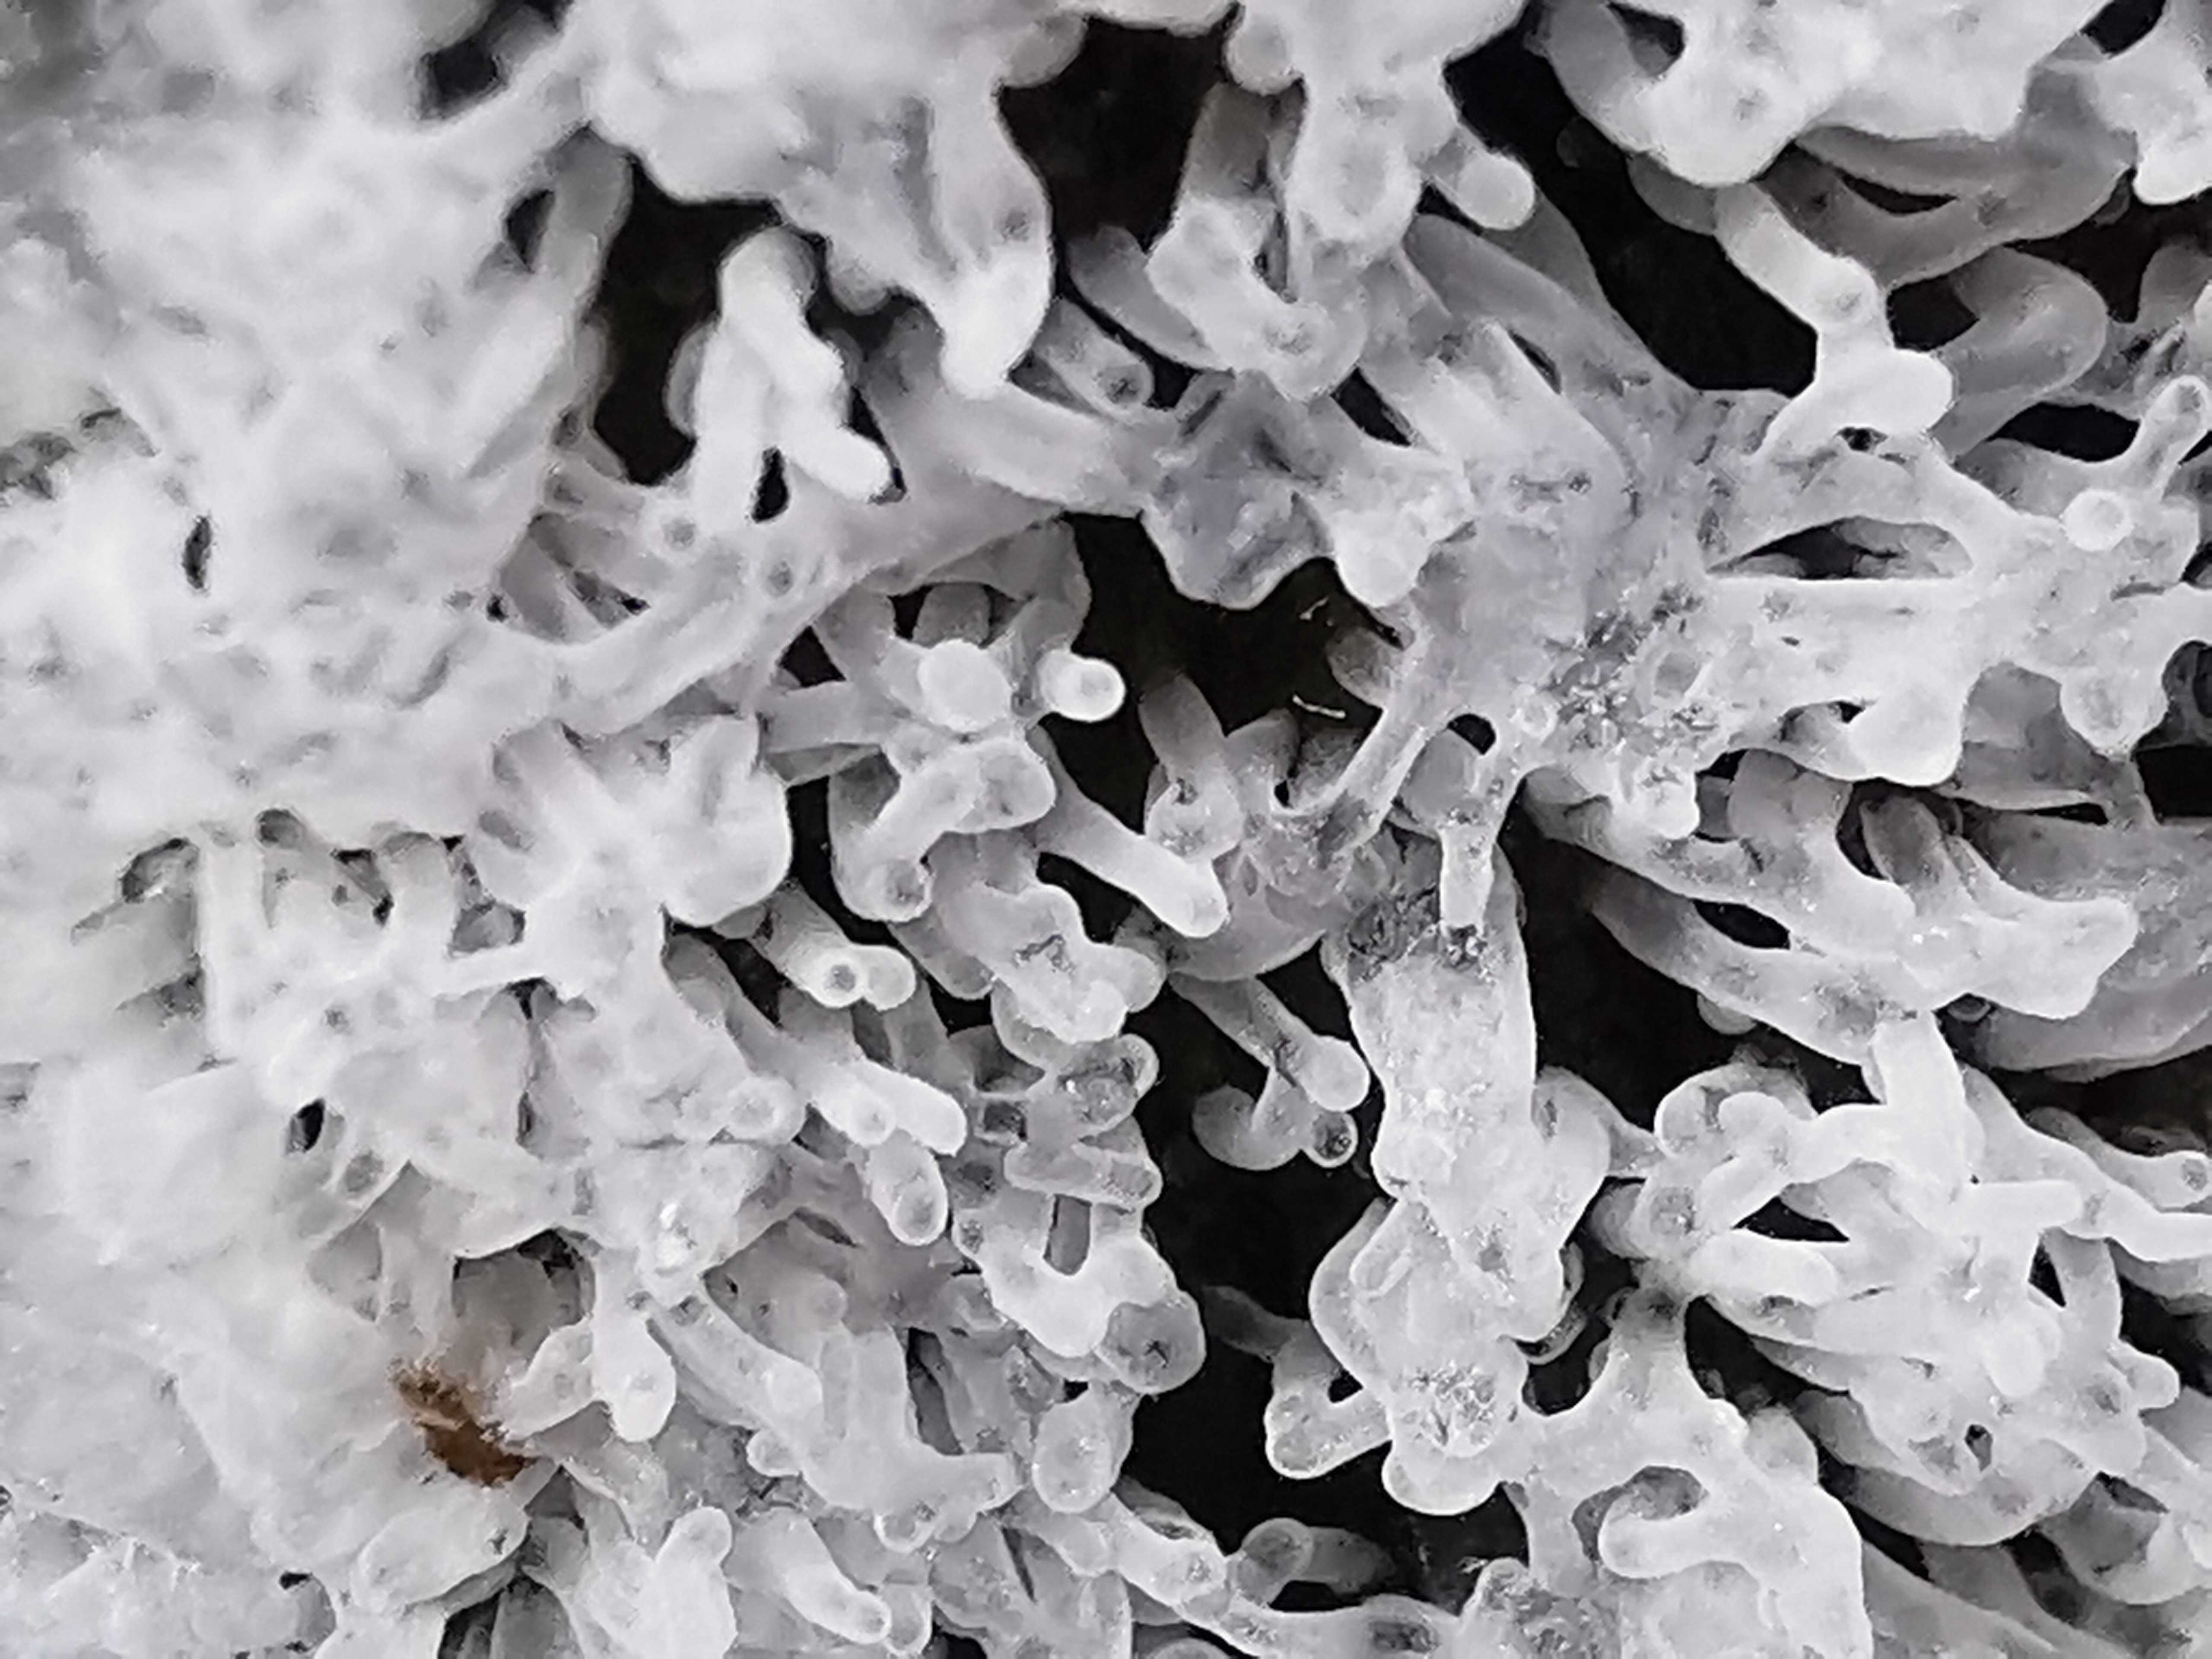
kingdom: Protozoa
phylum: Mycetozoa
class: Protosteliomycetes
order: Ceratiomyxales
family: Ceratiomyxaceae
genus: Ceratiomyxa
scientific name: Ceratiomyxa fruticulosa
